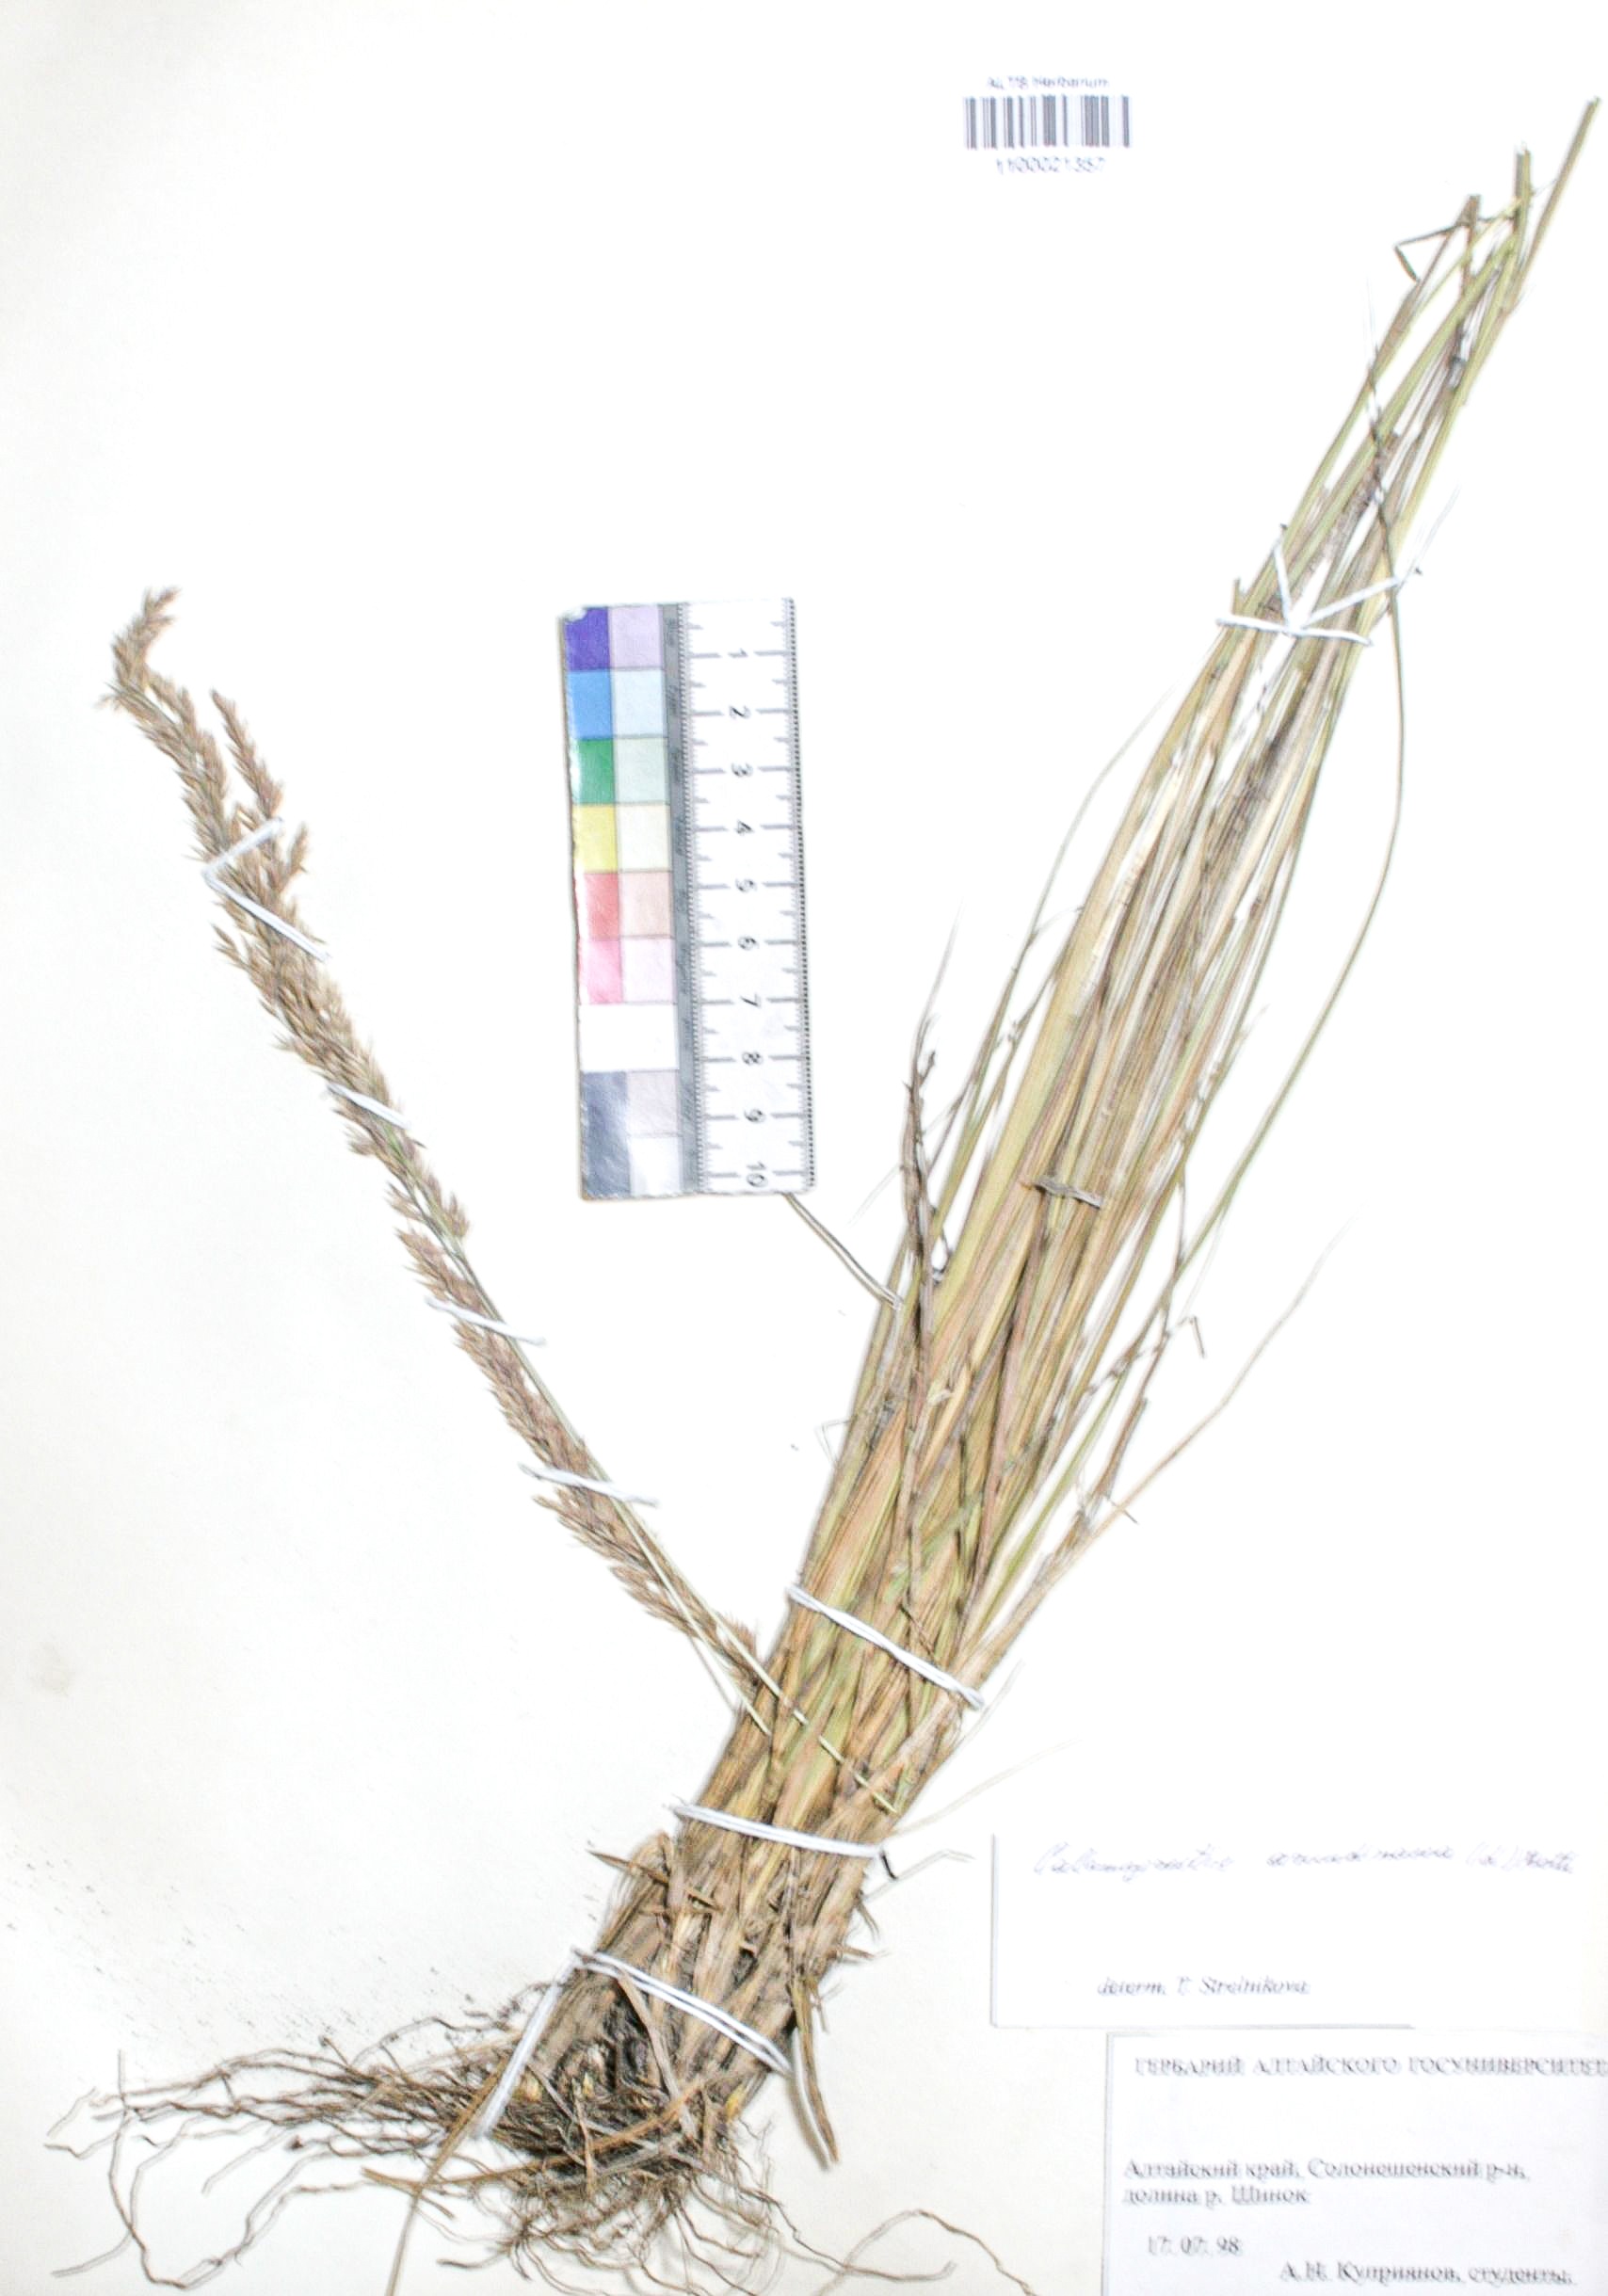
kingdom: Plantae
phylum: Tracheophyta
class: Liliopsida
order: Poales
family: Poaceae
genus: Calamagrostis
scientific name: Calamagrostis arundinacea
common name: Metskastik
